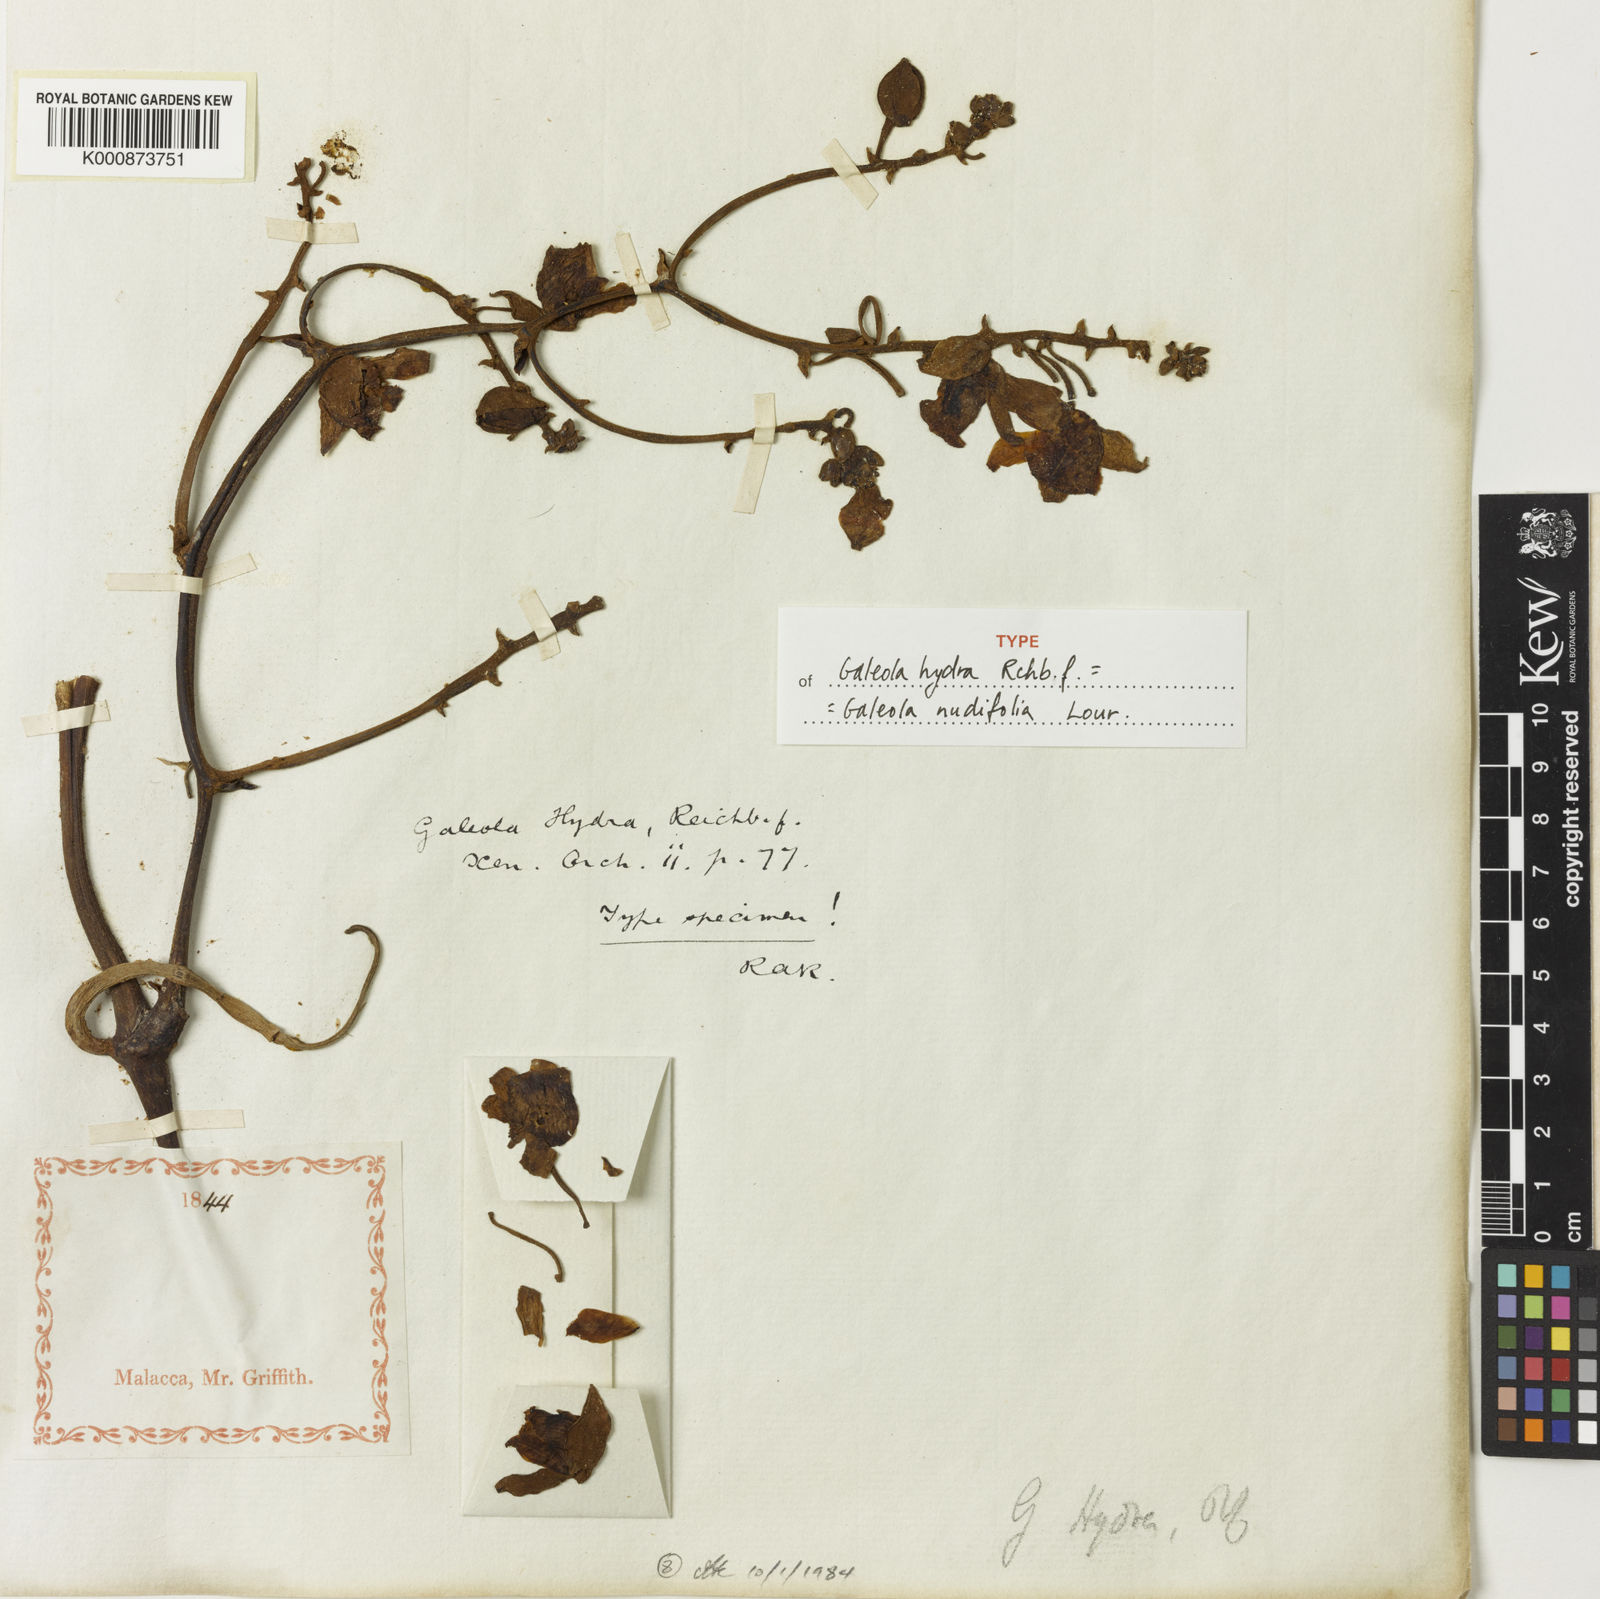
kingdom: Plantae
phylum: Tracheophyta
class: Liliopsida
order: Asparagales
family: Orchidaceae
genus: Galeola
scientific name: Galeola nudifolia
